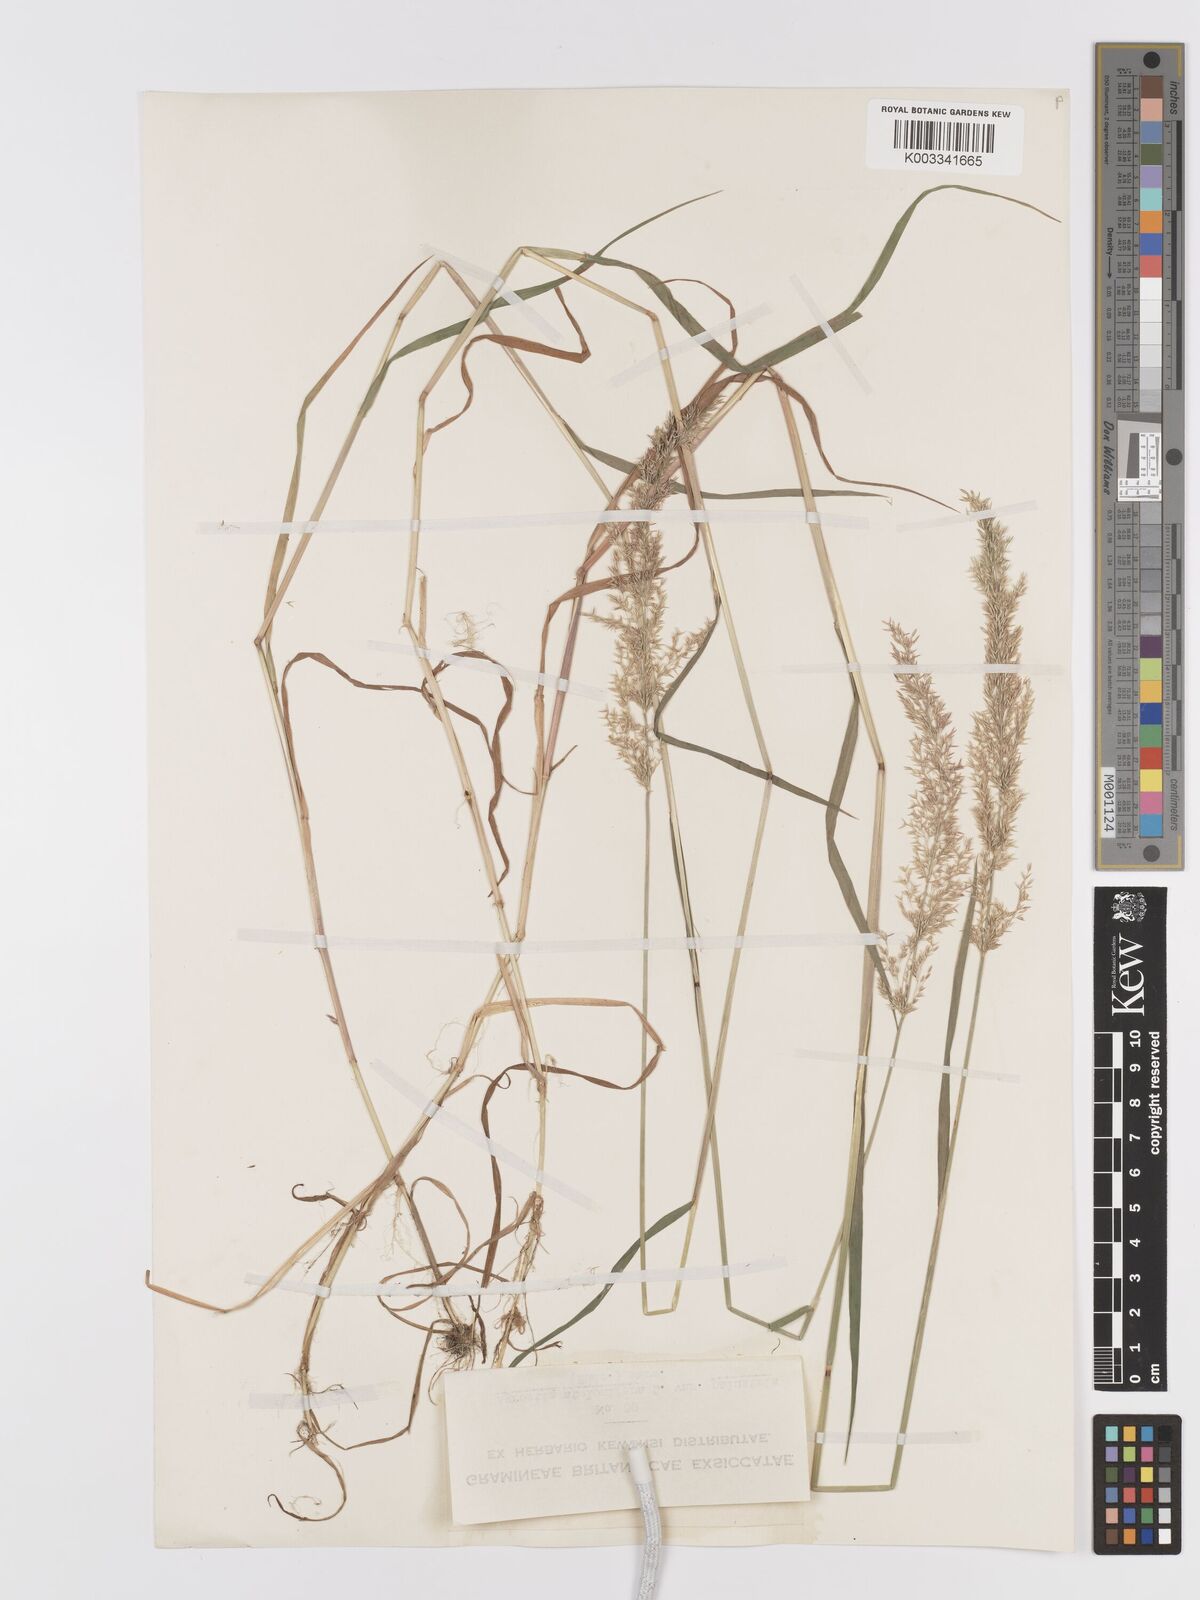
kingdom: Plantae
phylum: Tracheophyta
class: Liliopsida
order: Poales
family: Poaceae
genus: Agrostis
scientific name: Agrostis stolonifera
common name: Creeping bentgrass
